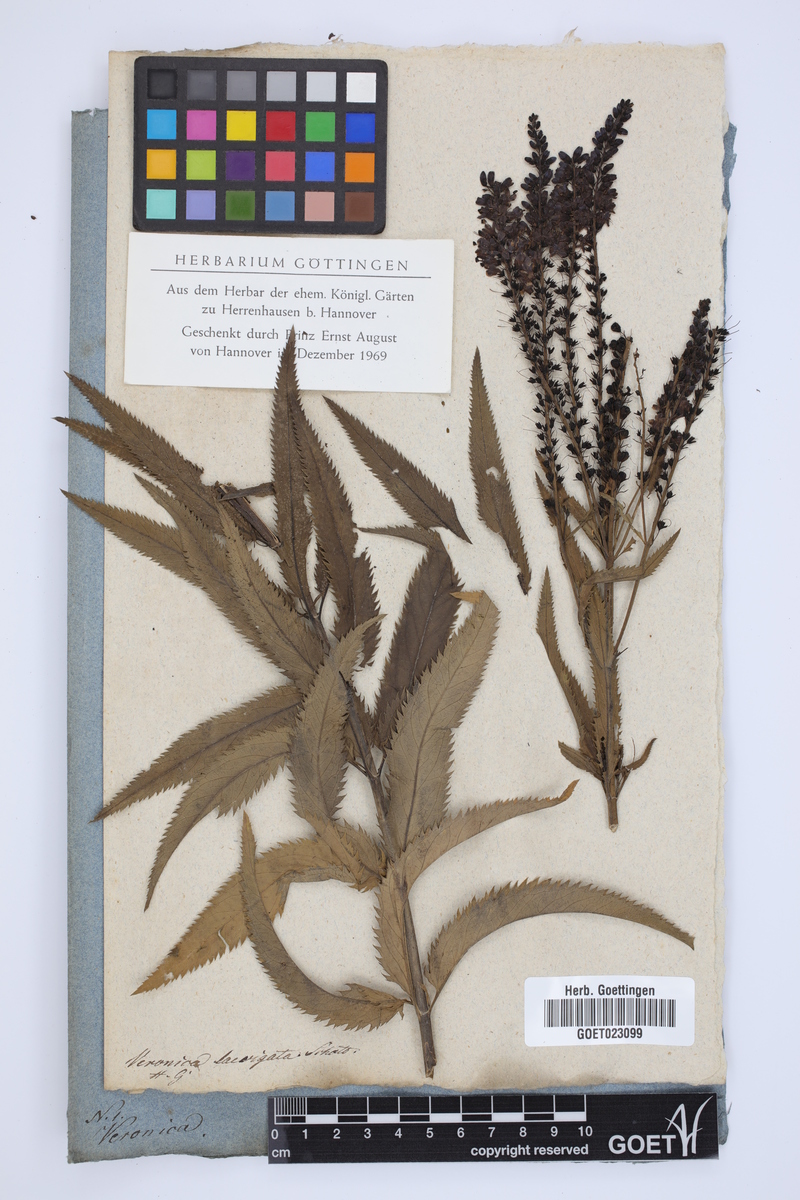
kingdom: Plantae
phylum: Tracheophyta
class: Magnoliopsida
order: Lamiales
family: Plantaginaceae
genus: Veronica
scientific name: Veronica carsei
